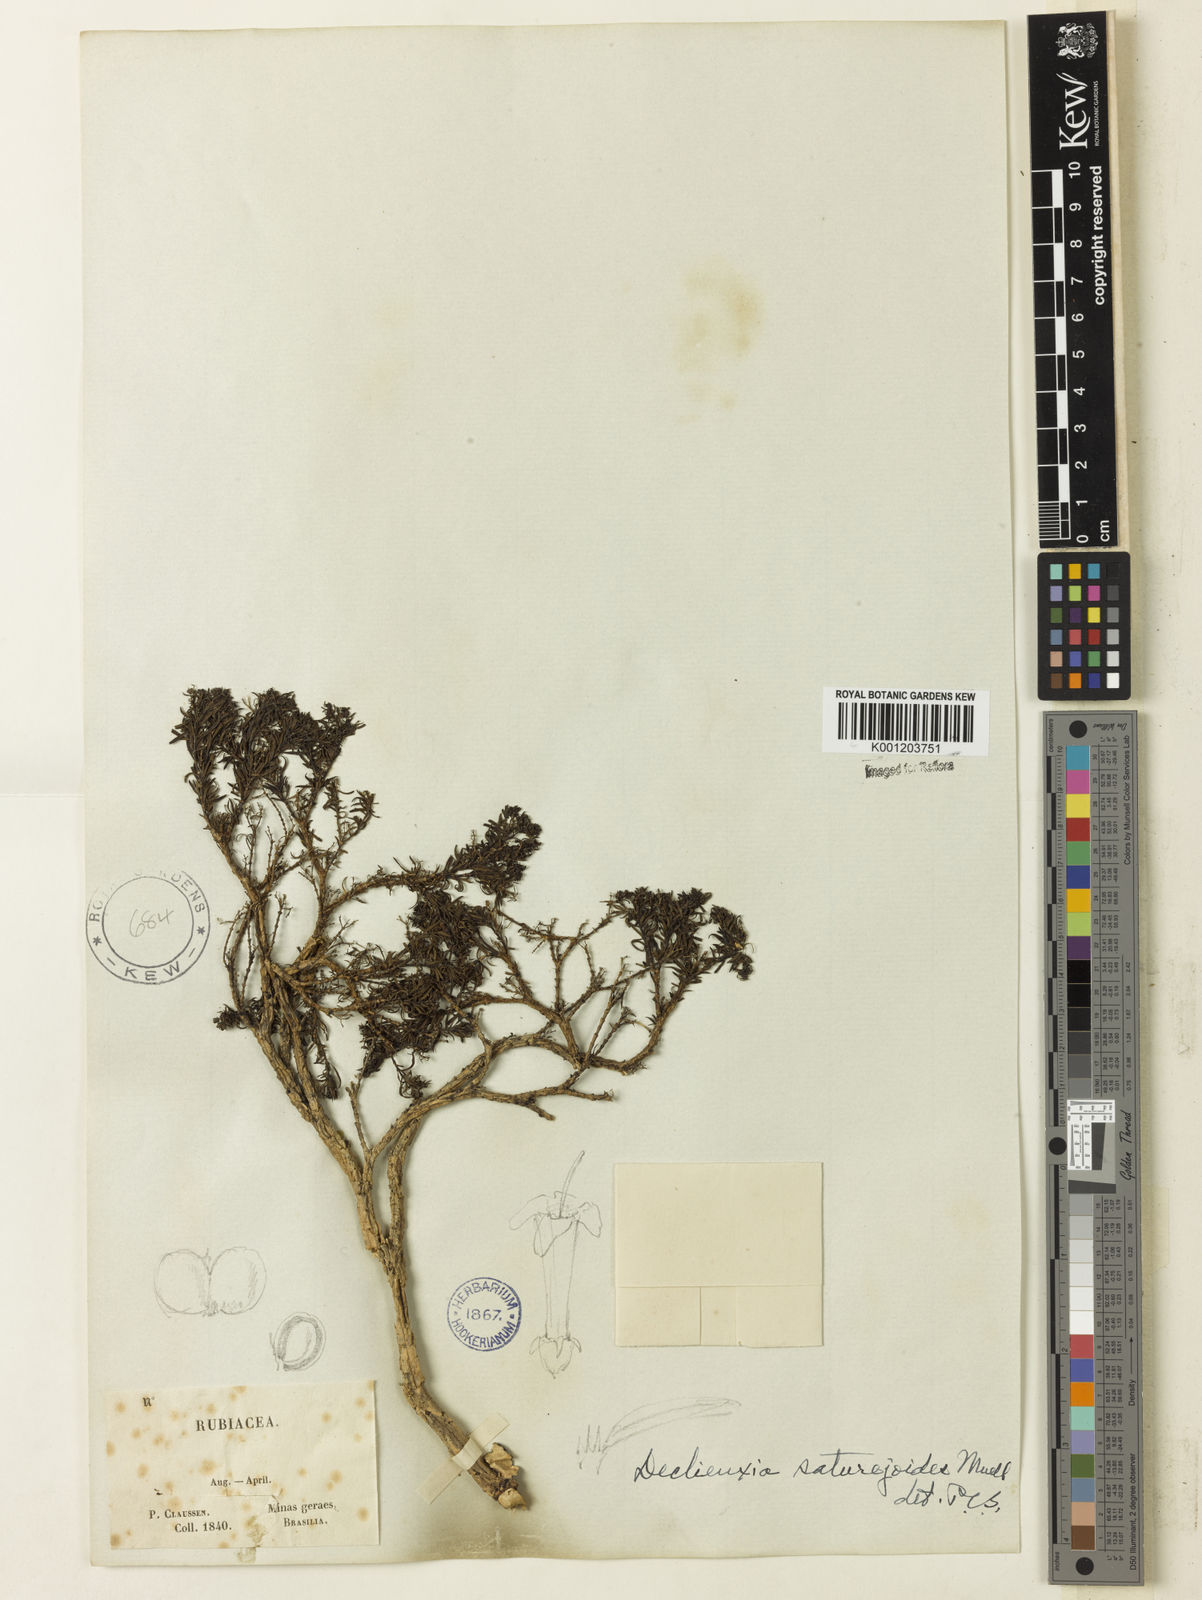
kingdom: Plantae
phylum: Tracheophyta
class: Magnoliopsida
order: Gentianales
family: Rubiaceae
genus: Declieuxia
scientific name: Declieuxia
